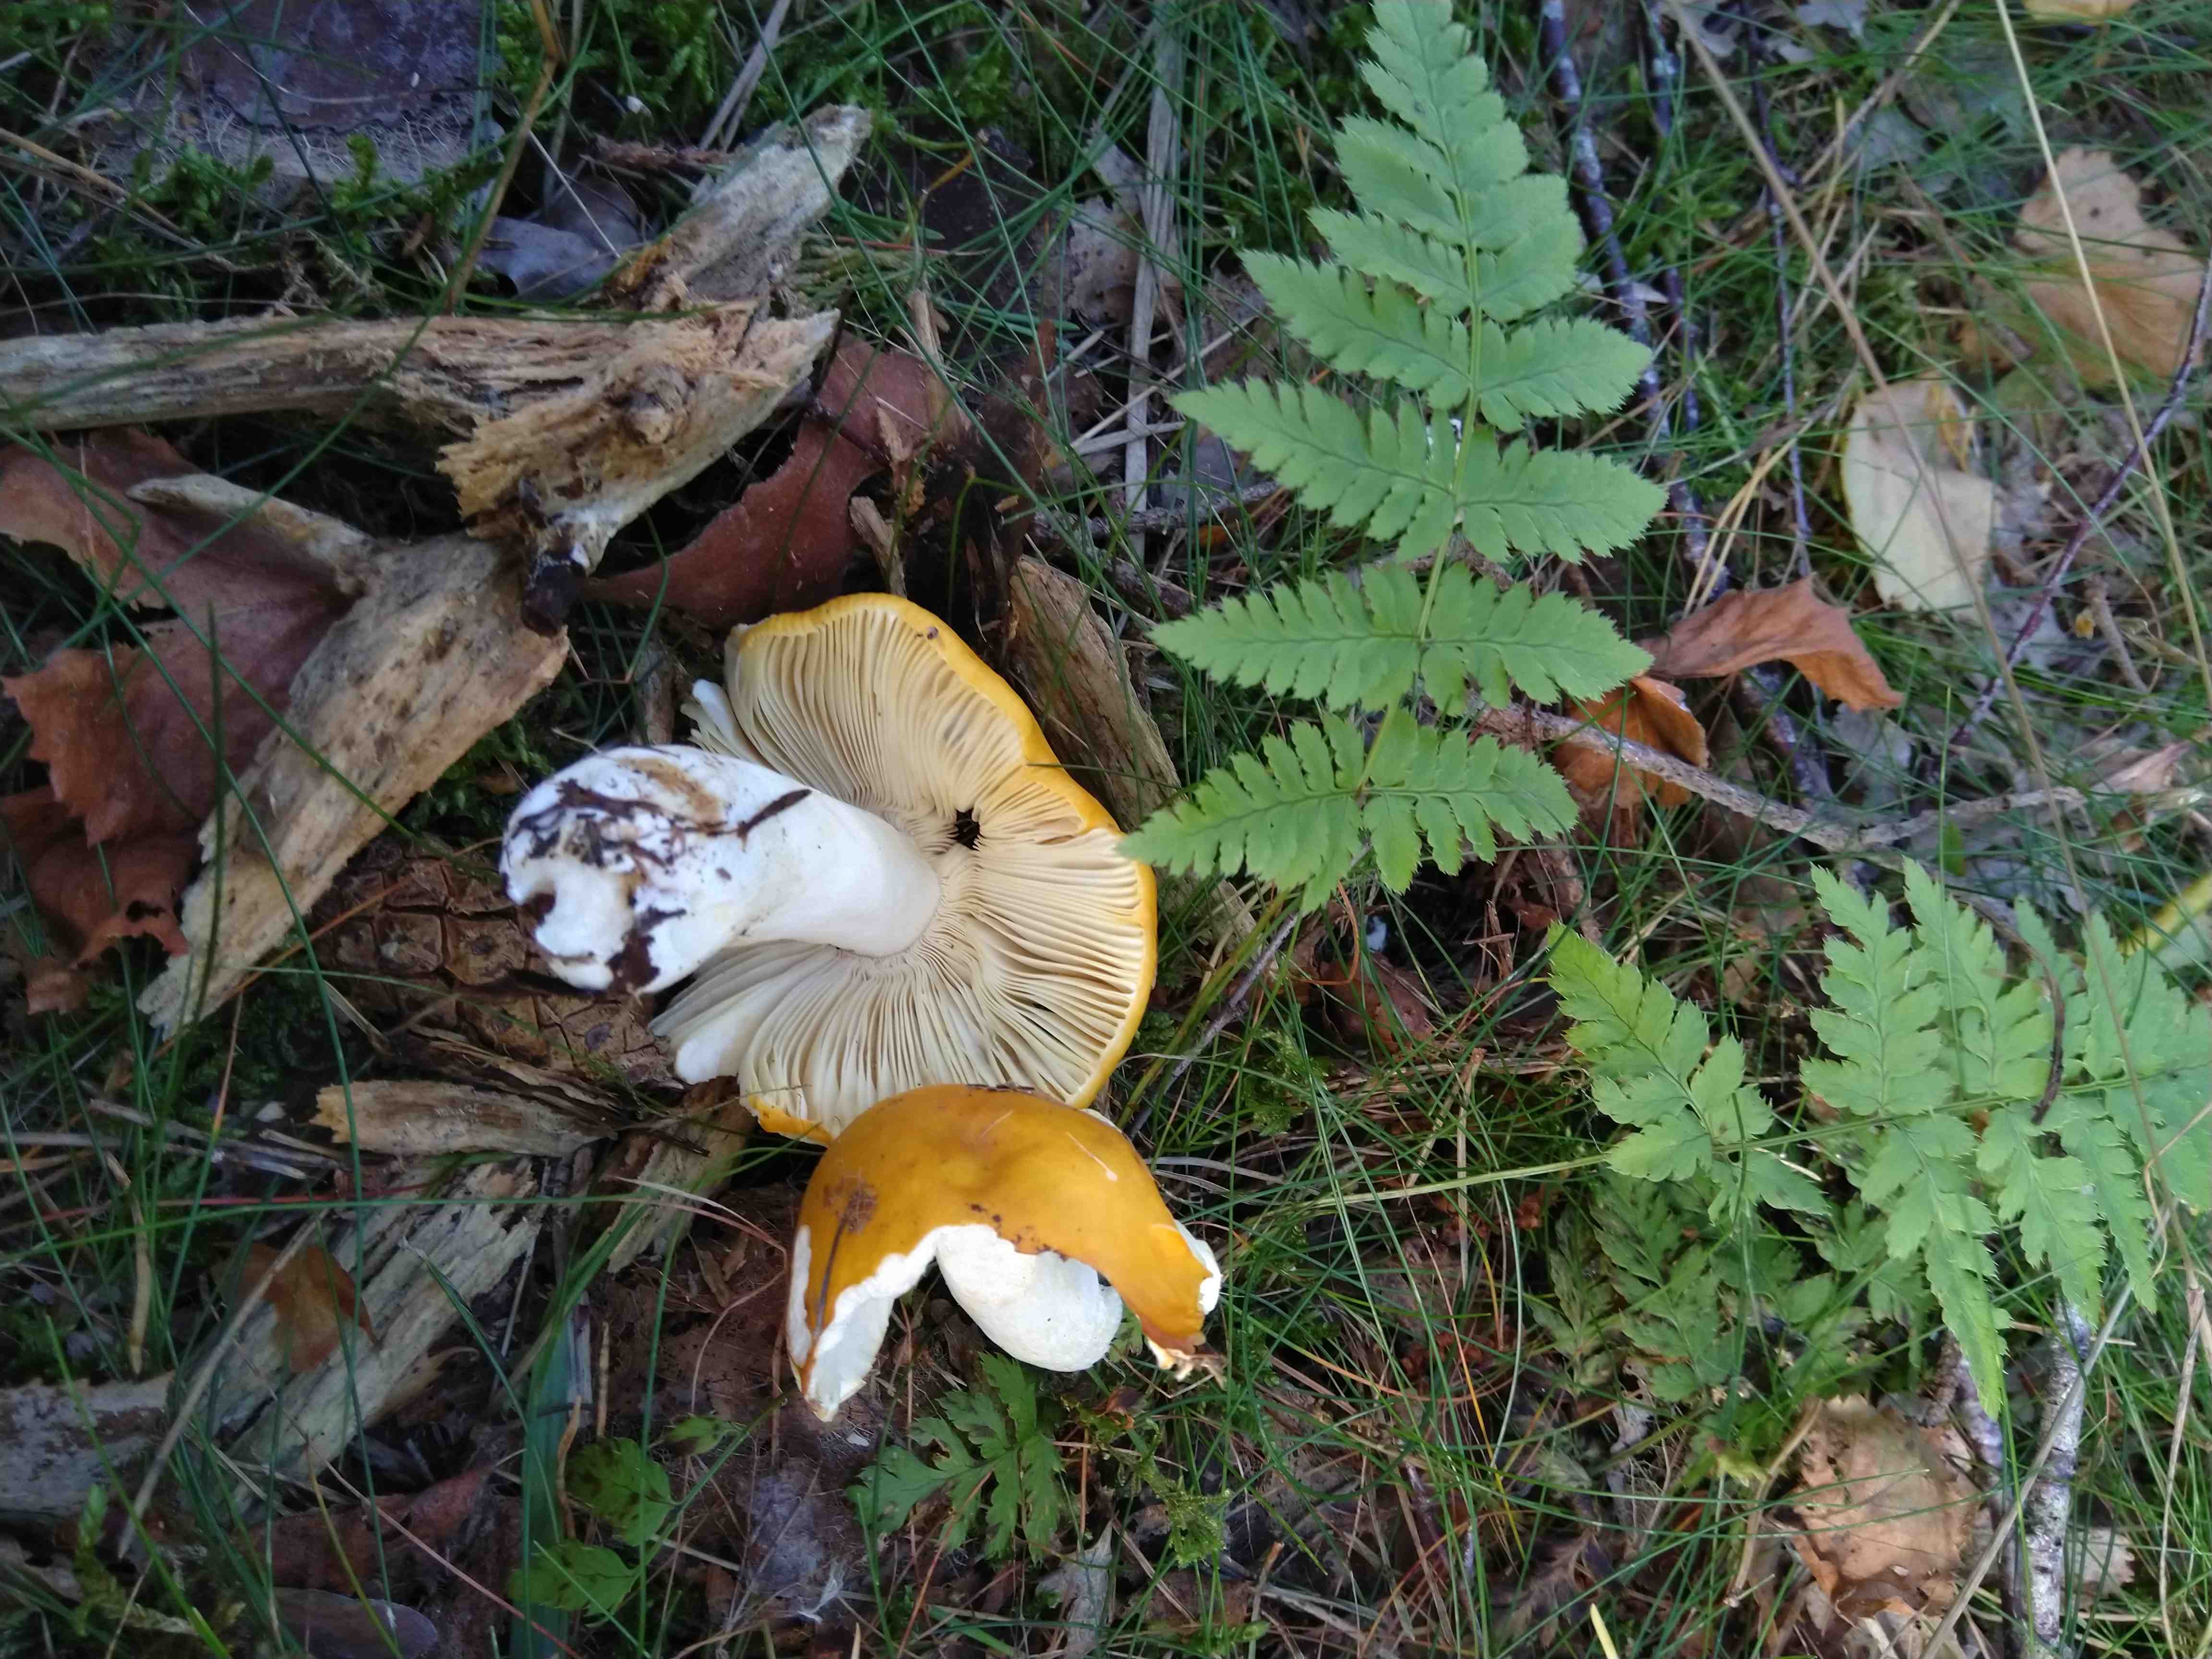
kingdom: Fungi
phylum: Basidiomycota
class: Agaricomycetes
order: Russulales
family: Russulaceae
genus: Russula
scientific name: Russula claroflava
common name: birke-skørhat
